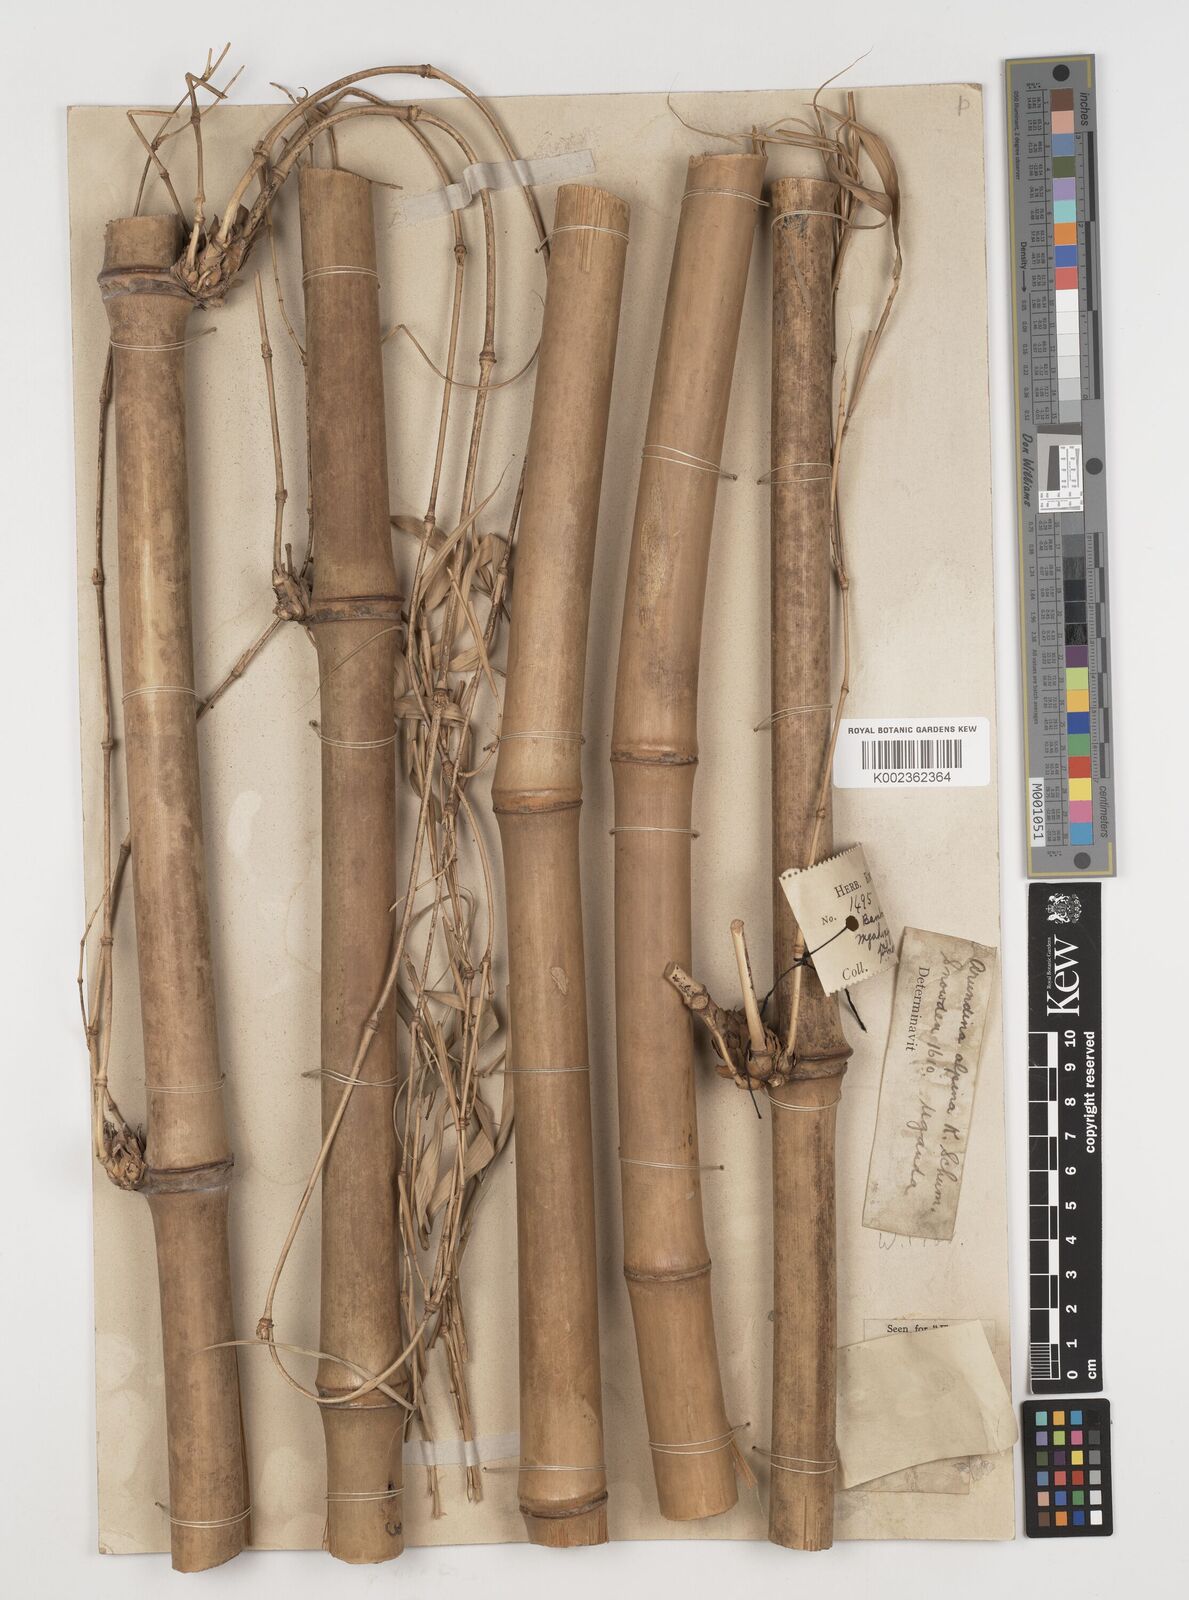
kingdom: Plantae
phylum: Tracheophyta
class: Liliopsida
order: Poales
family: Poaceae
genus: Oldeania
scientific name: Oldeania alpina
